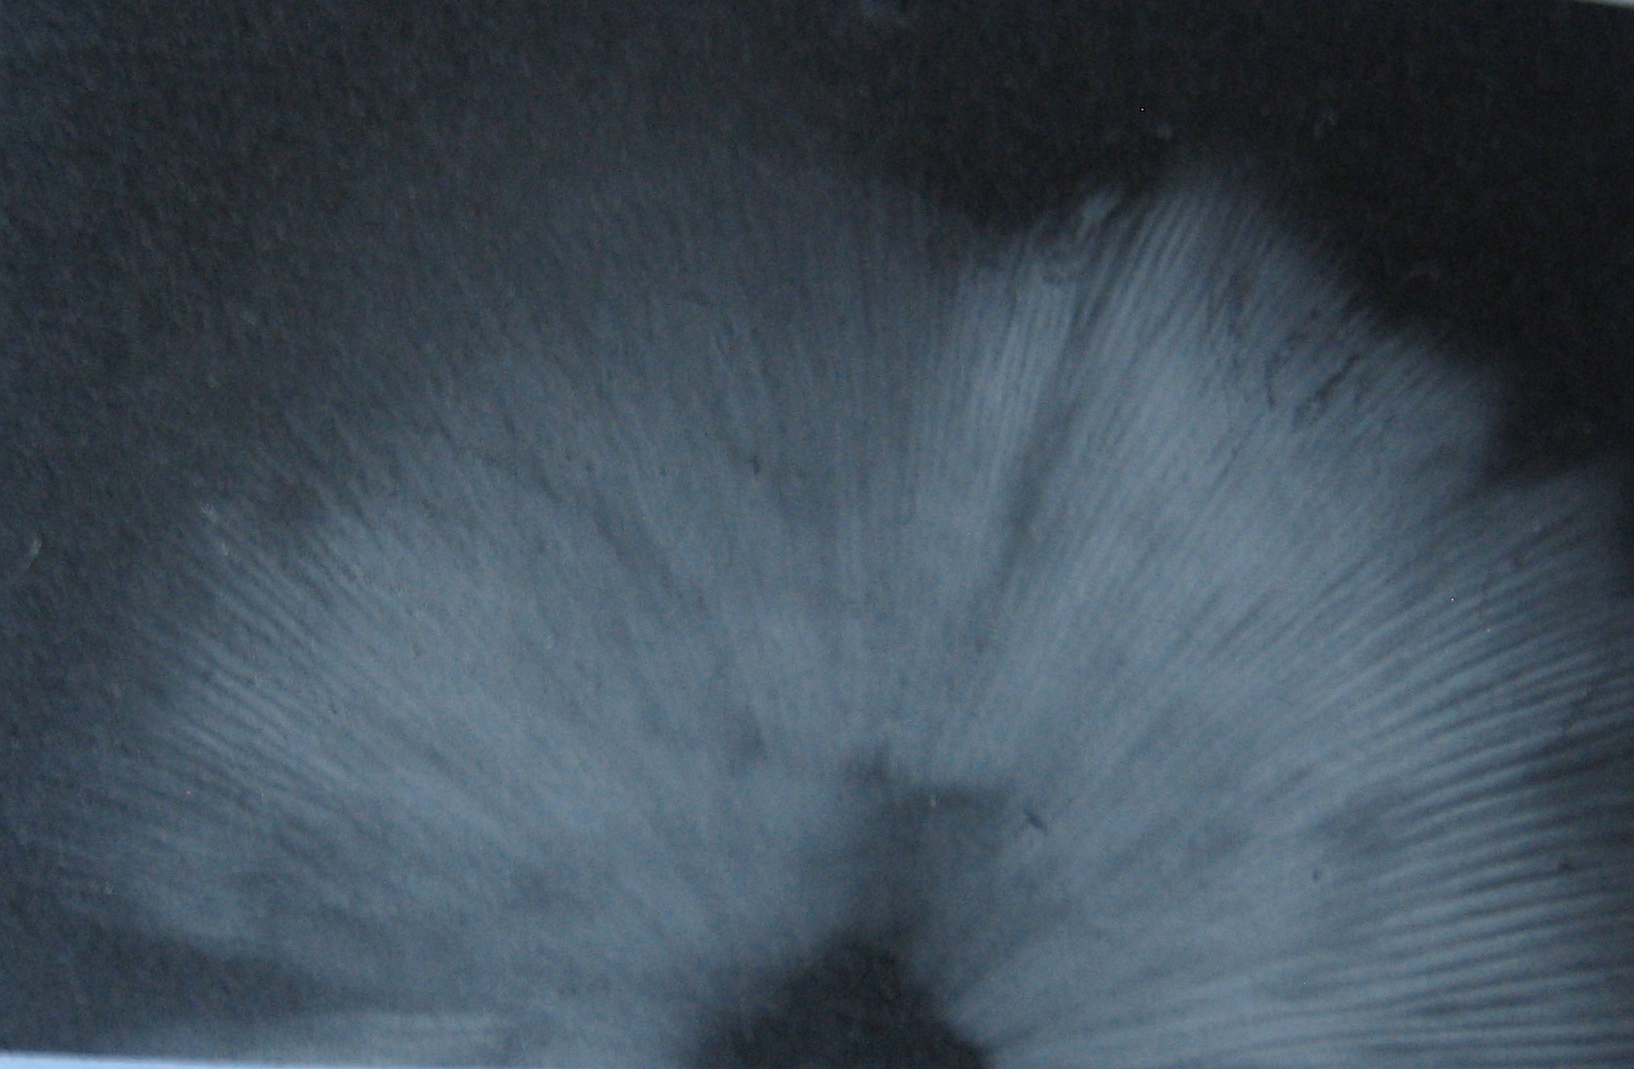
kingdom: Fungi
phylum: Basidiomycota
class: Agaricomycetes
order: Agaricales
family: Lyophyllaceae
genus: Calocybe
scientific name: Calocybe carnea
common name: rosa fagerhat
